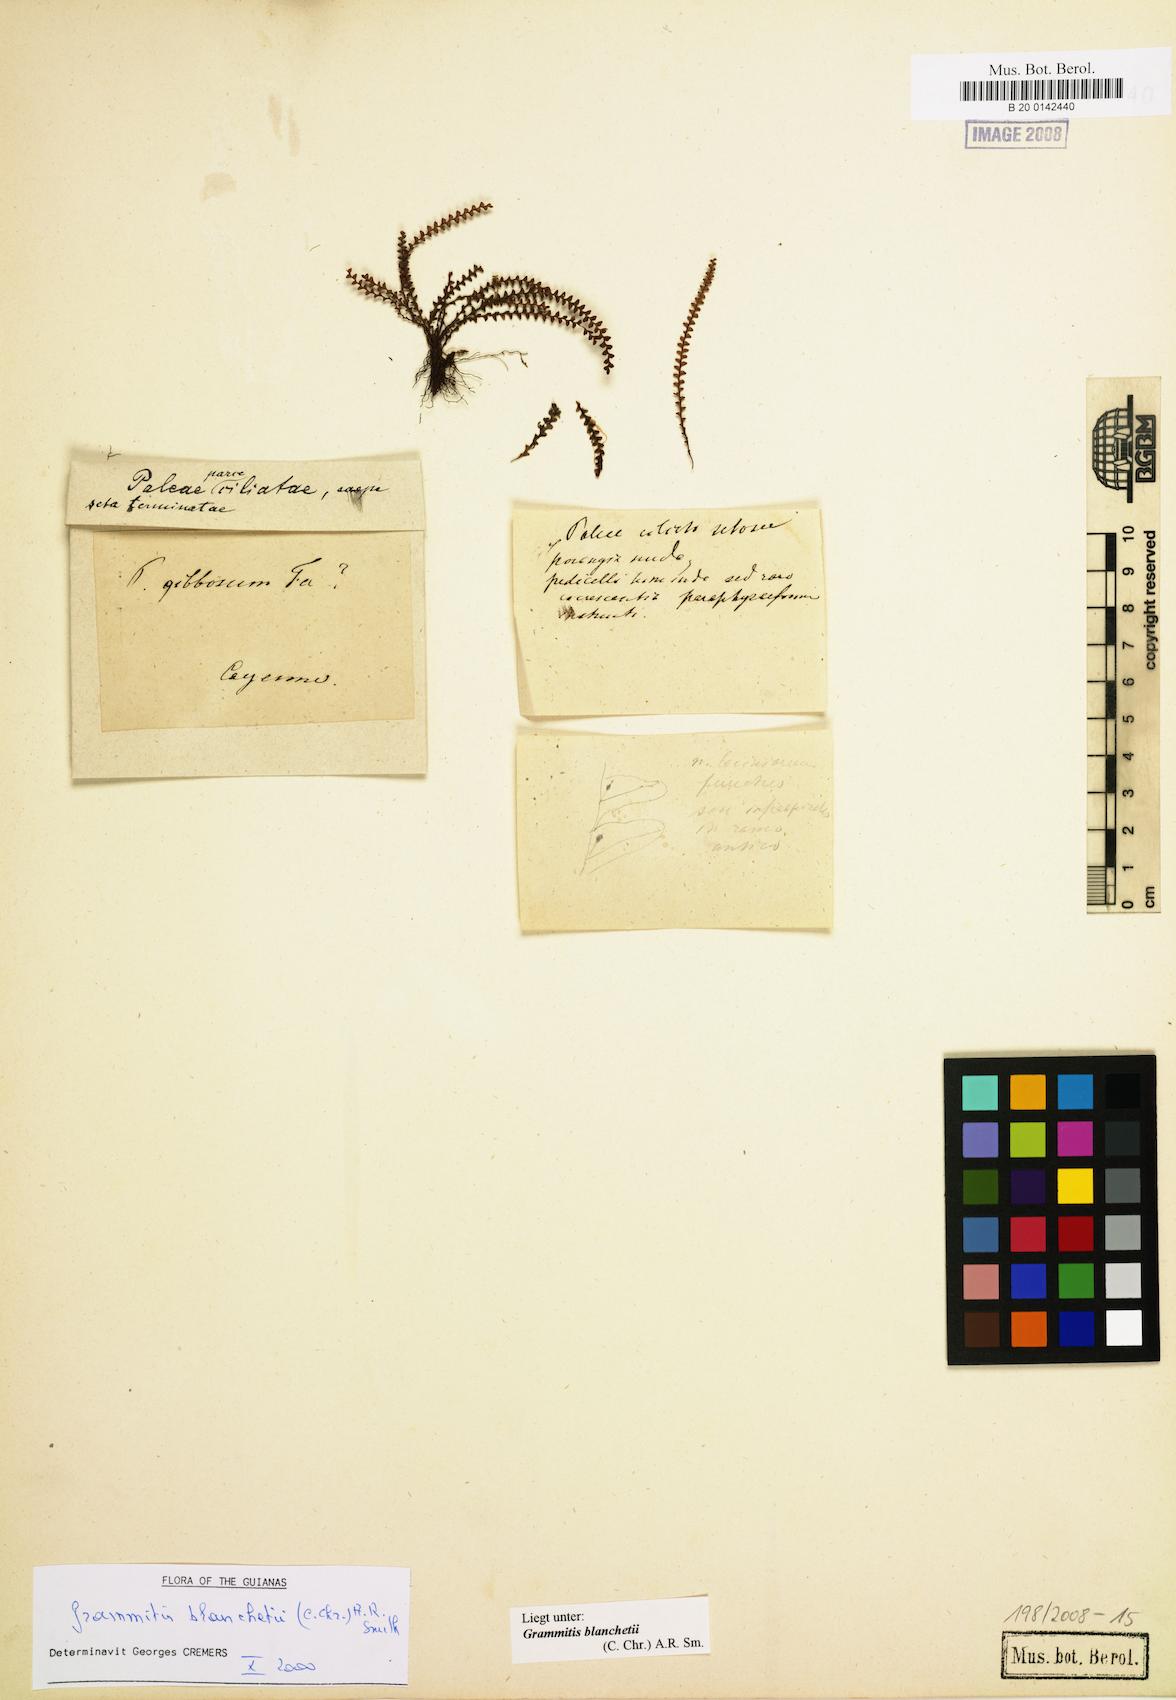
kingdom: Plantae
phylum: Tracheophyta
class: Polypodiopsida
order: Polypodiales
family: Polypodiaceae
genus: Moranopteris
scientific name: Moranopteris nana
